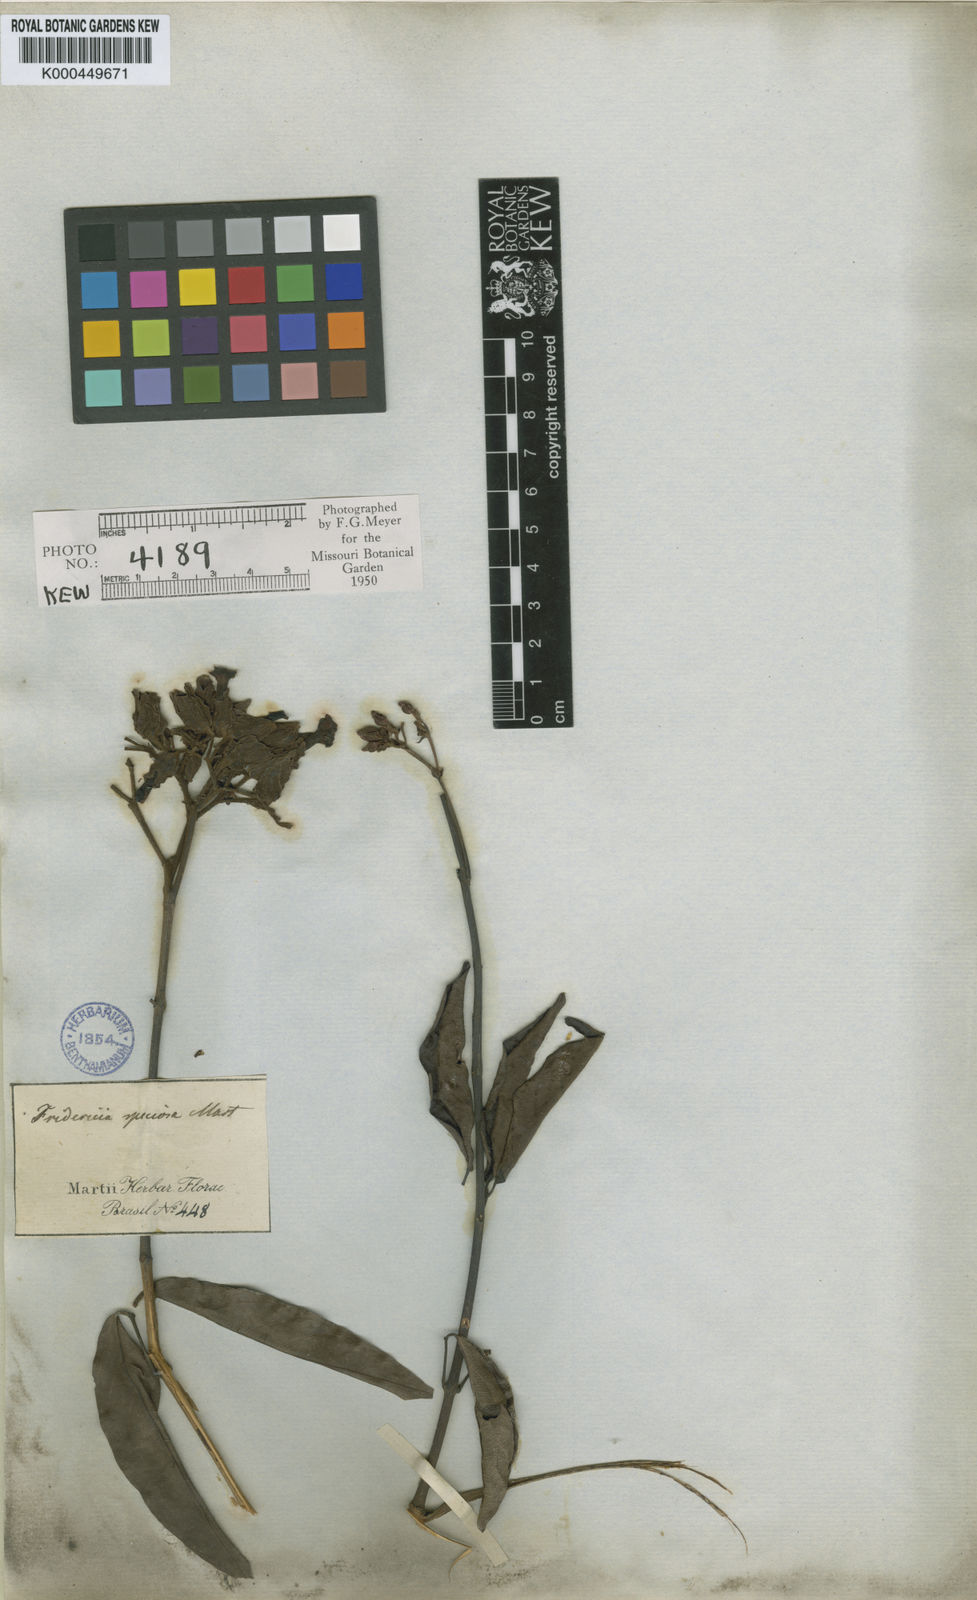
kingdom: Plantae
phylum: Tracheophyta
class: Magnoliopsida
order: Lamiales
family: Bignoniaceae
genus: Fridericia
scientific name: Fridericia speciosa
